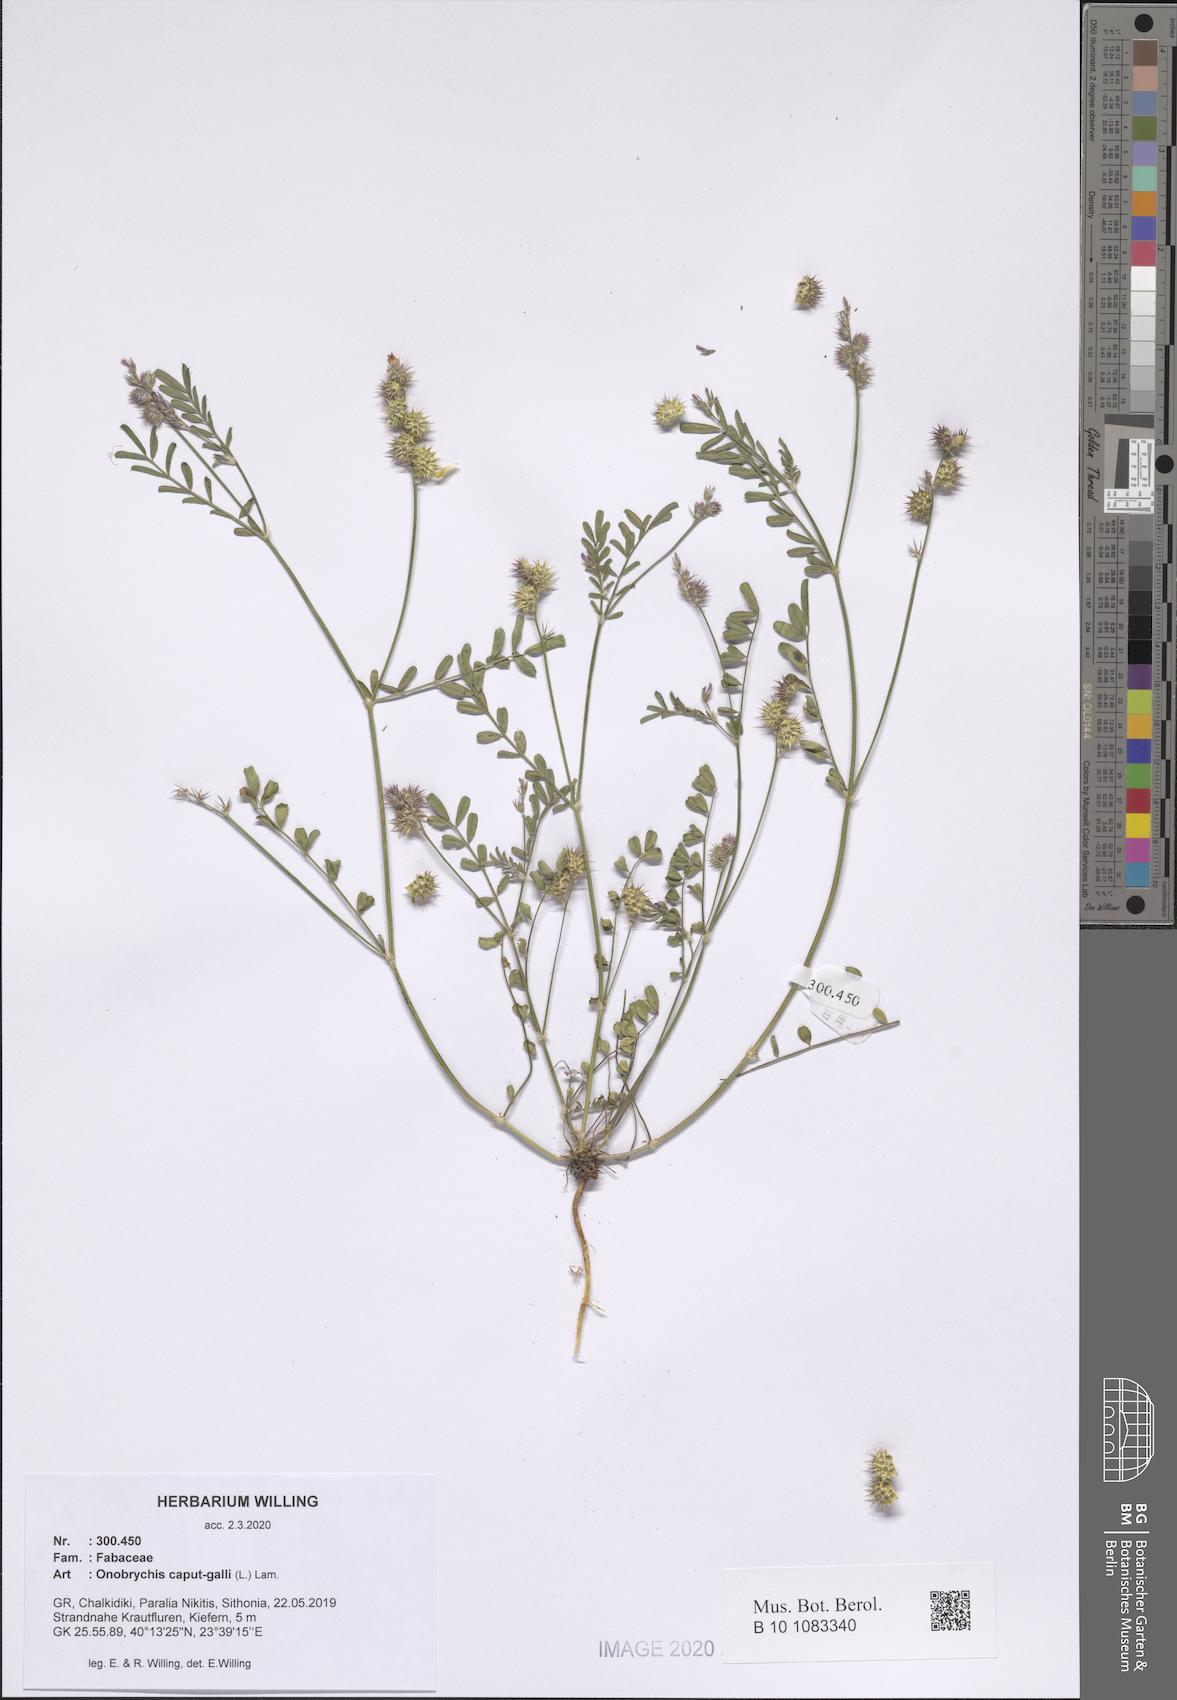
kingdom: Plantae
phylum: Tracheophyta
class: Magnoliopsida
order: Fabales
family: Fabaceae
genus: Onobrychis
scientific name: Onobrychis caput-galli
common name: Cockscomb sainfoin
